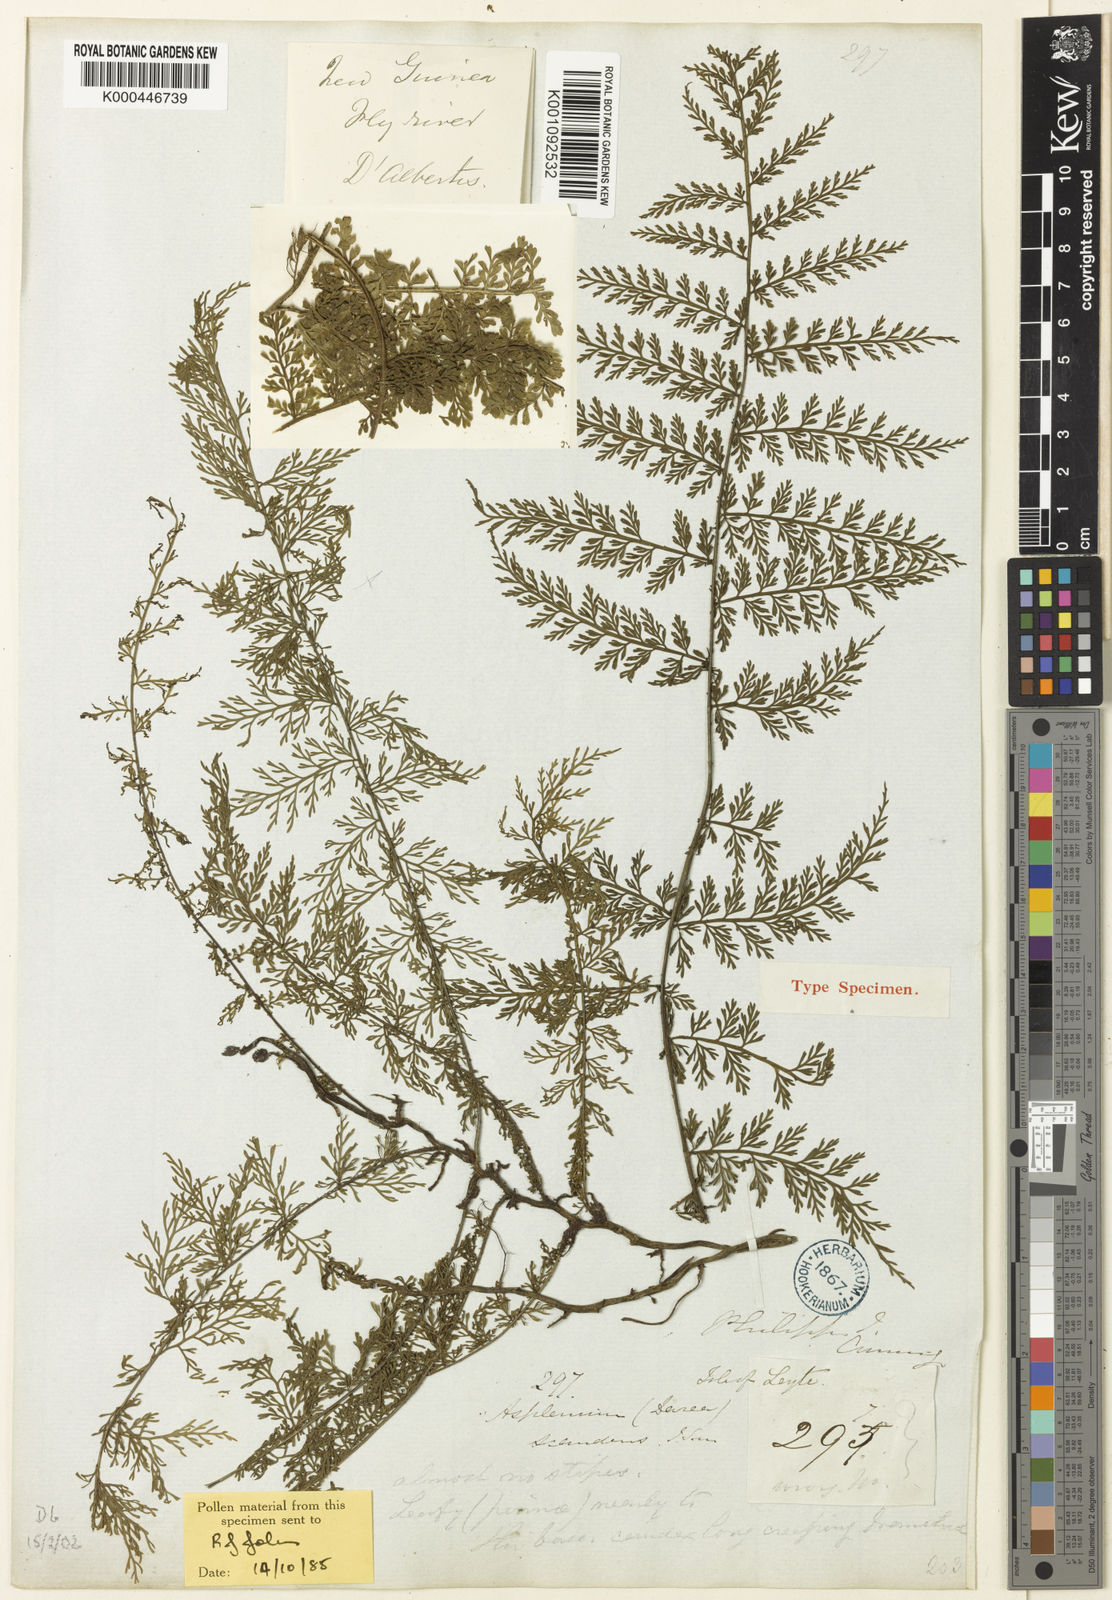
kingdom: Plantae
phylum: Tracheophyta
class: Polypodiopsida
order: Polypodiales
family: Aspleniaceae
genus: Asplenium
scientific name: Asplenium scandens
